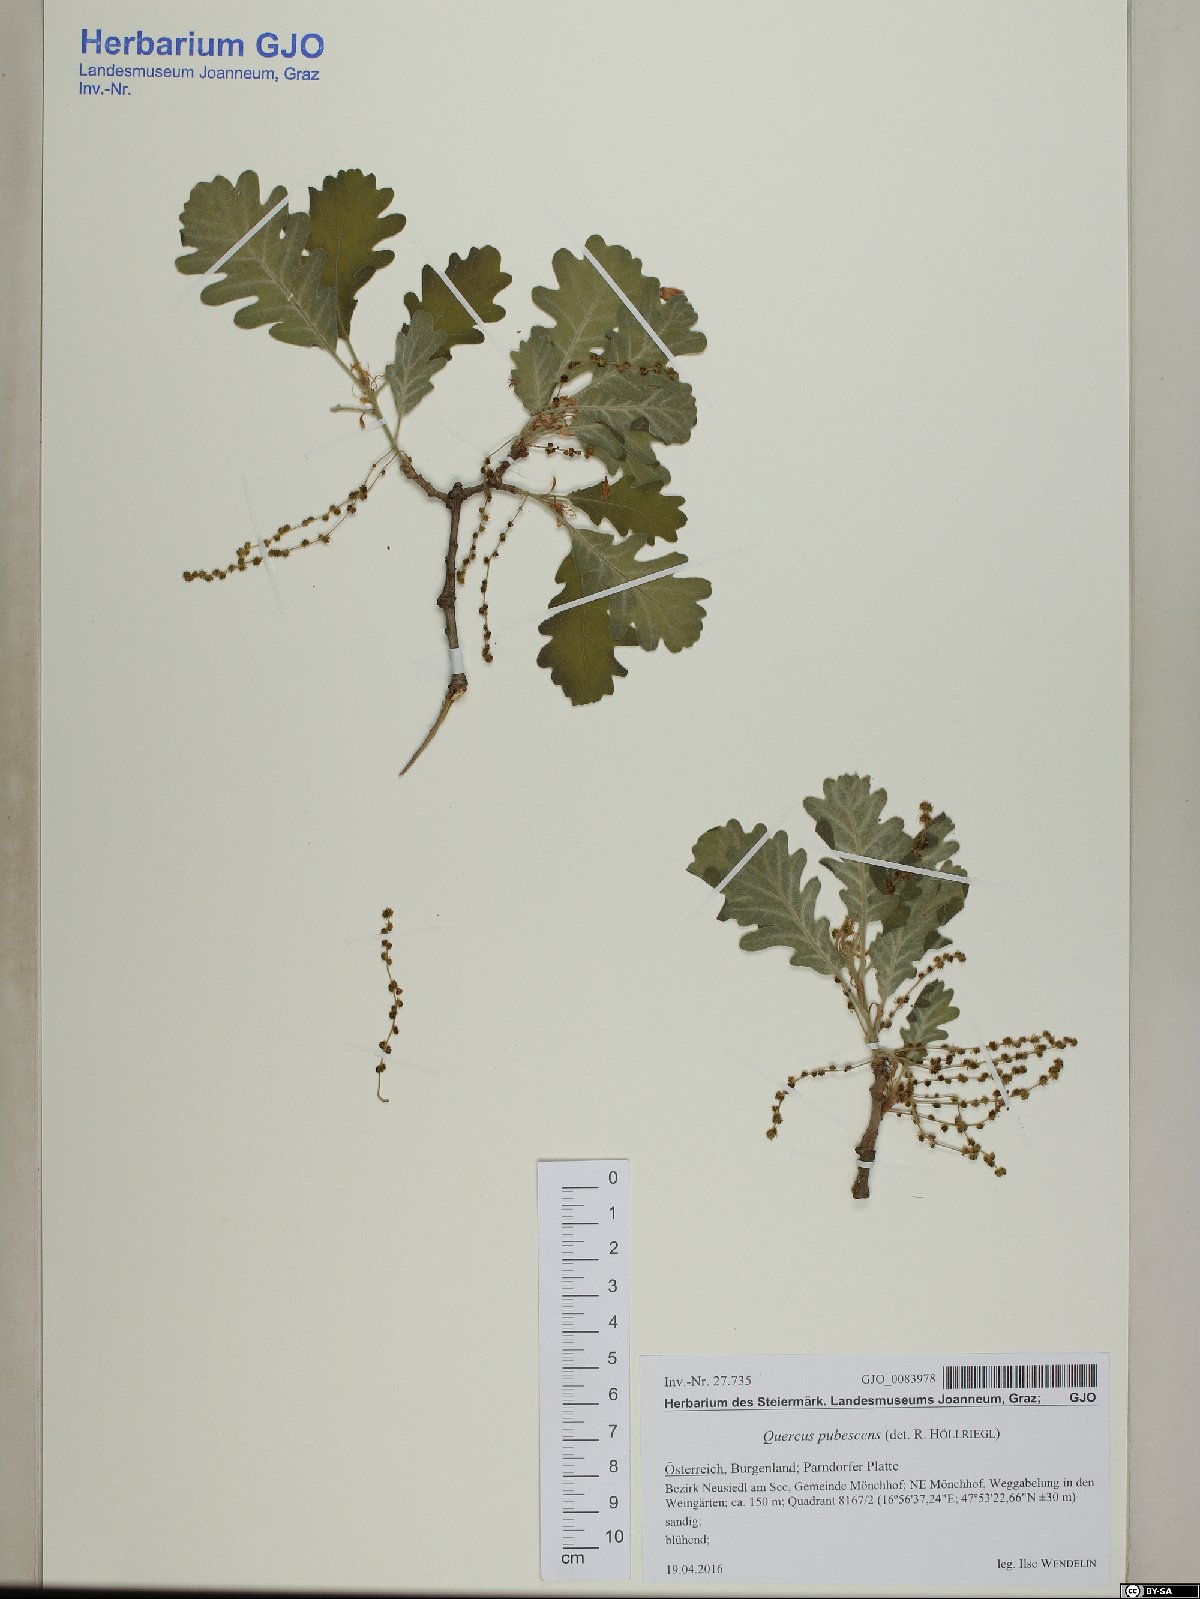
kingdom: Plantae
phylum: Tracheophyta
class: Magnoliopsida
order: Fagales
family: Fagaceae
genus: Quercus
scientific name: Quercus pubescens
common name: Downy oak
